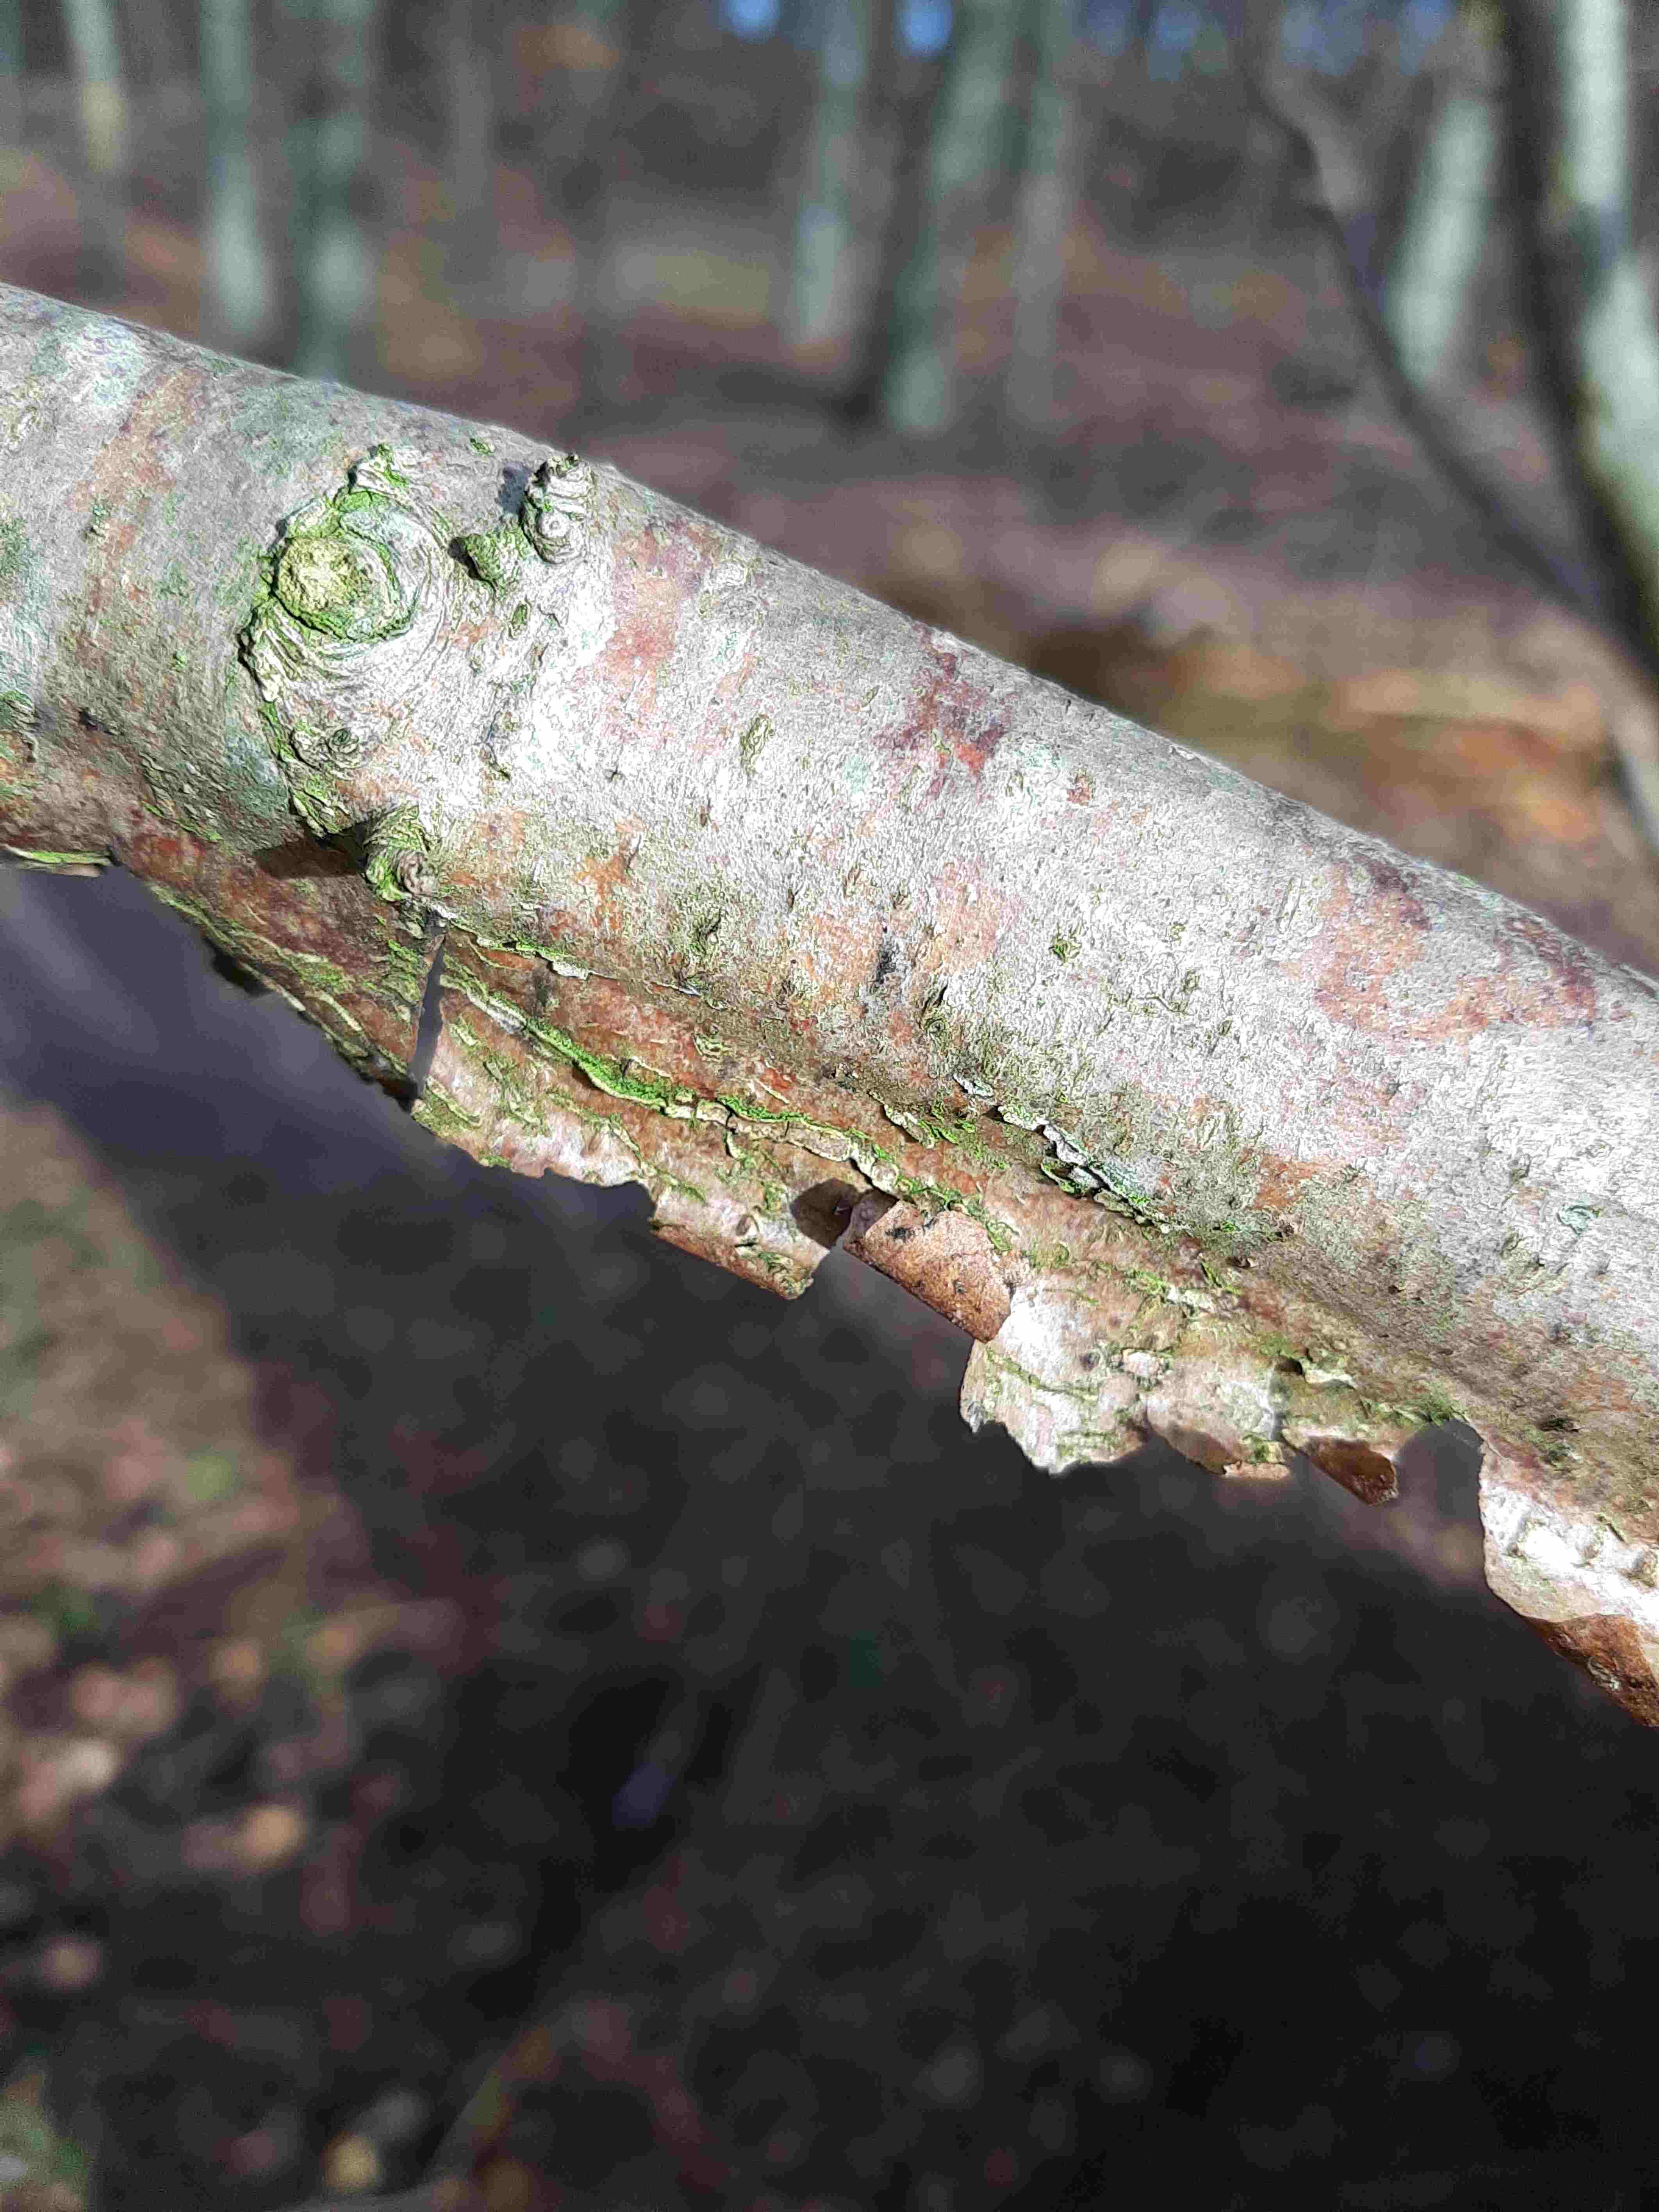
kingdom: Fungi
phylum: Basidiomycota
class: Agaricomycetes
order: Corticiales
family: Vuilleminiaceae
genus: Vuilleminia
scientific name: Vuilleminia coryli
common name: hassel-barksprænger
